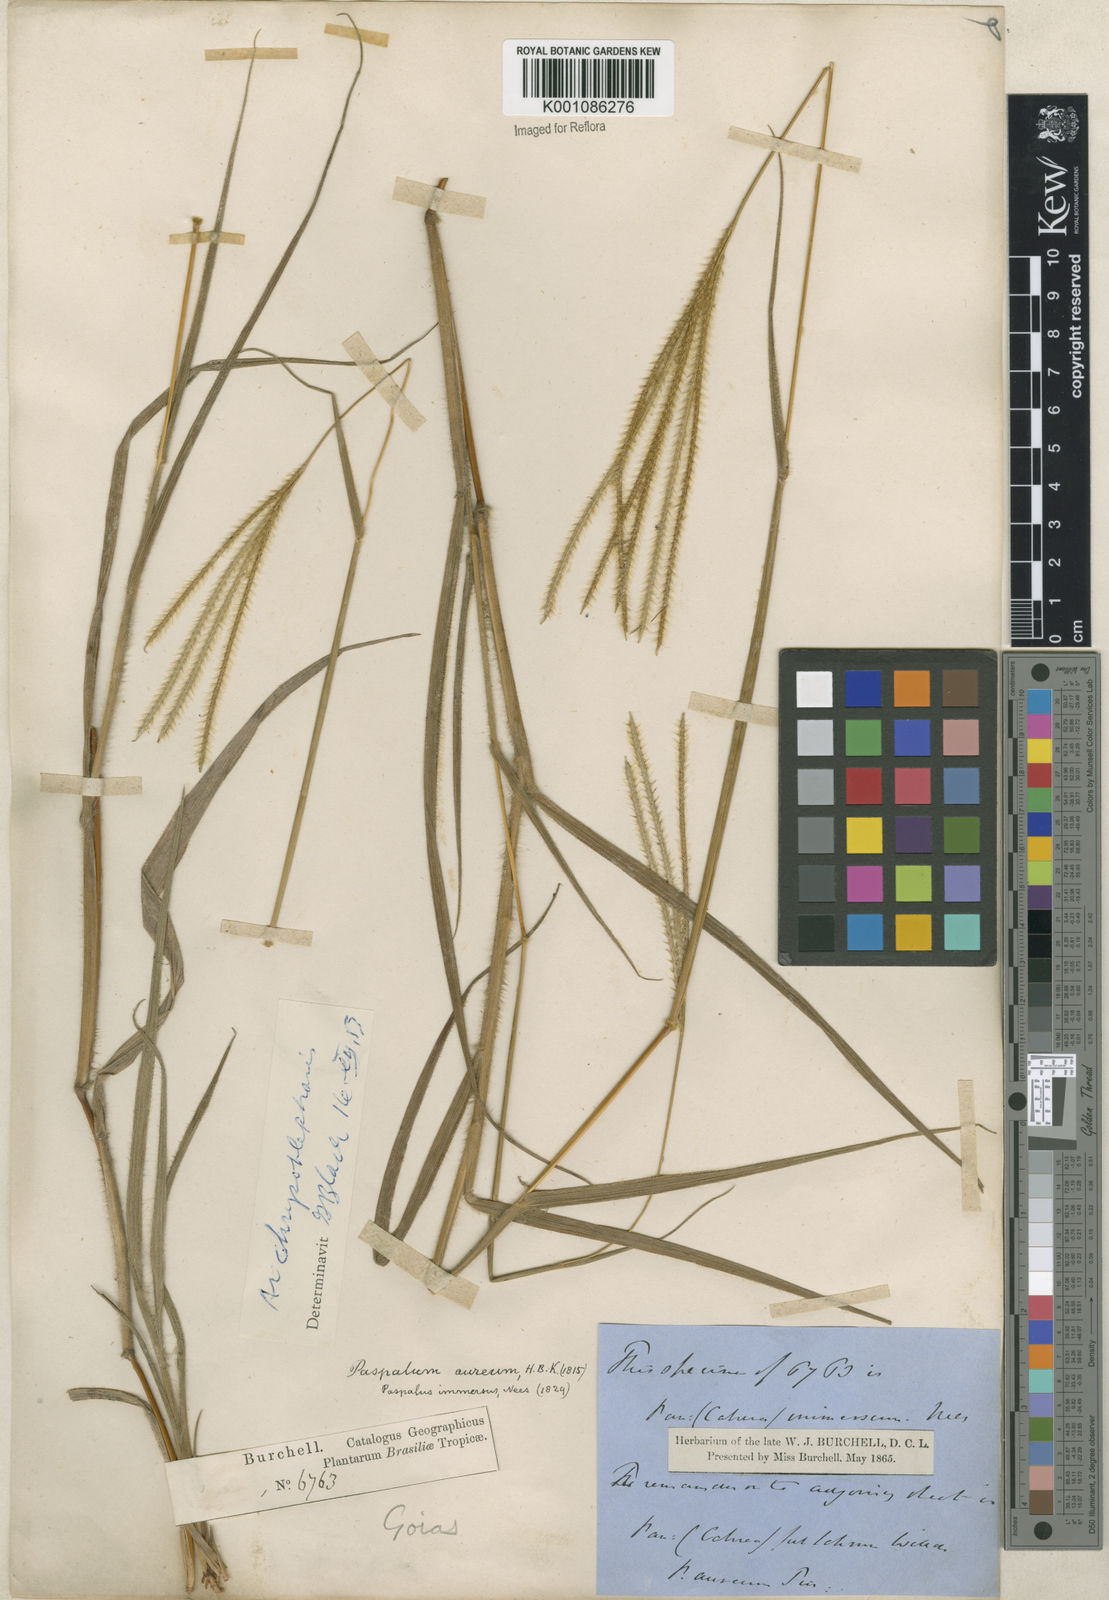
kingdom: Plantae
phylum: Tracheophyta
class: Liliopsida
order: Poales
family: Poaceae
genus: Axonopus
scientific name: Axonopus chrysoblepharis
